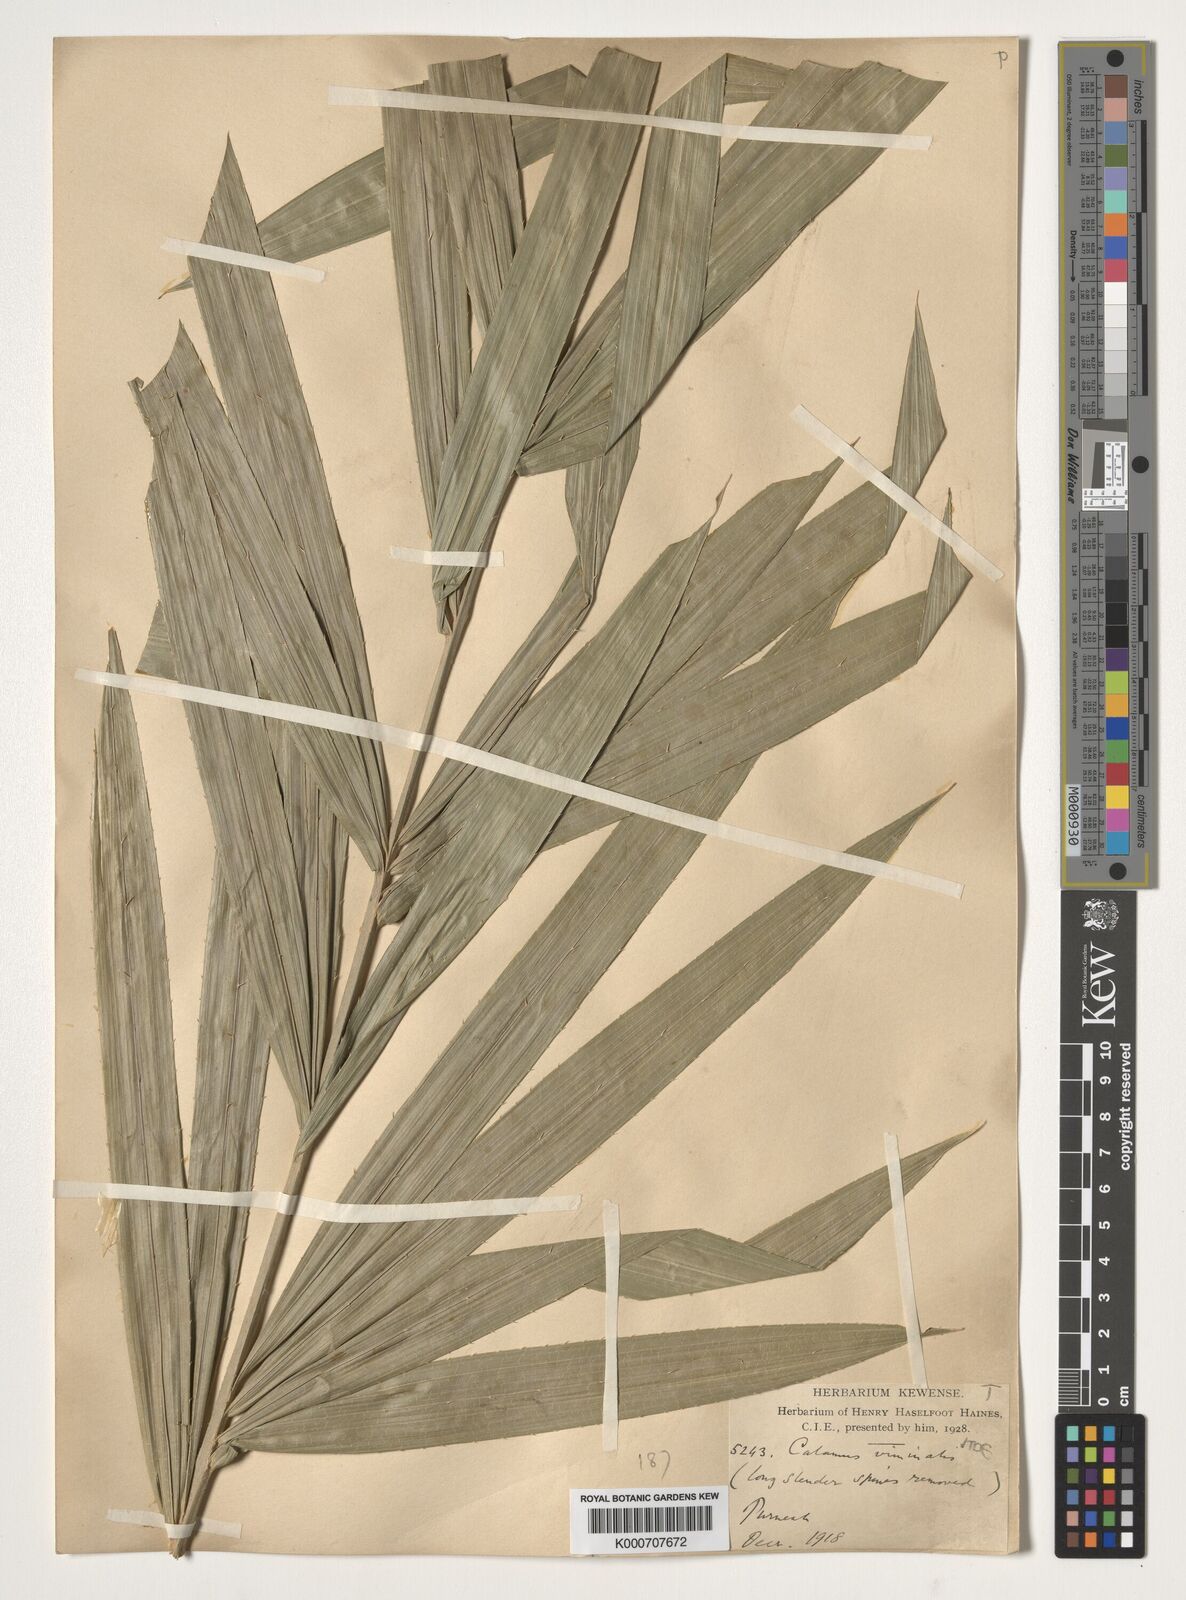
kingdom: Plantae
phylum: Tracheophyta
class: Liliopsida
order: Arecales
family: Arecaceae
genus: Calamus
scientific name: Calamus viminalis
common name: Osier-like rattan palm
